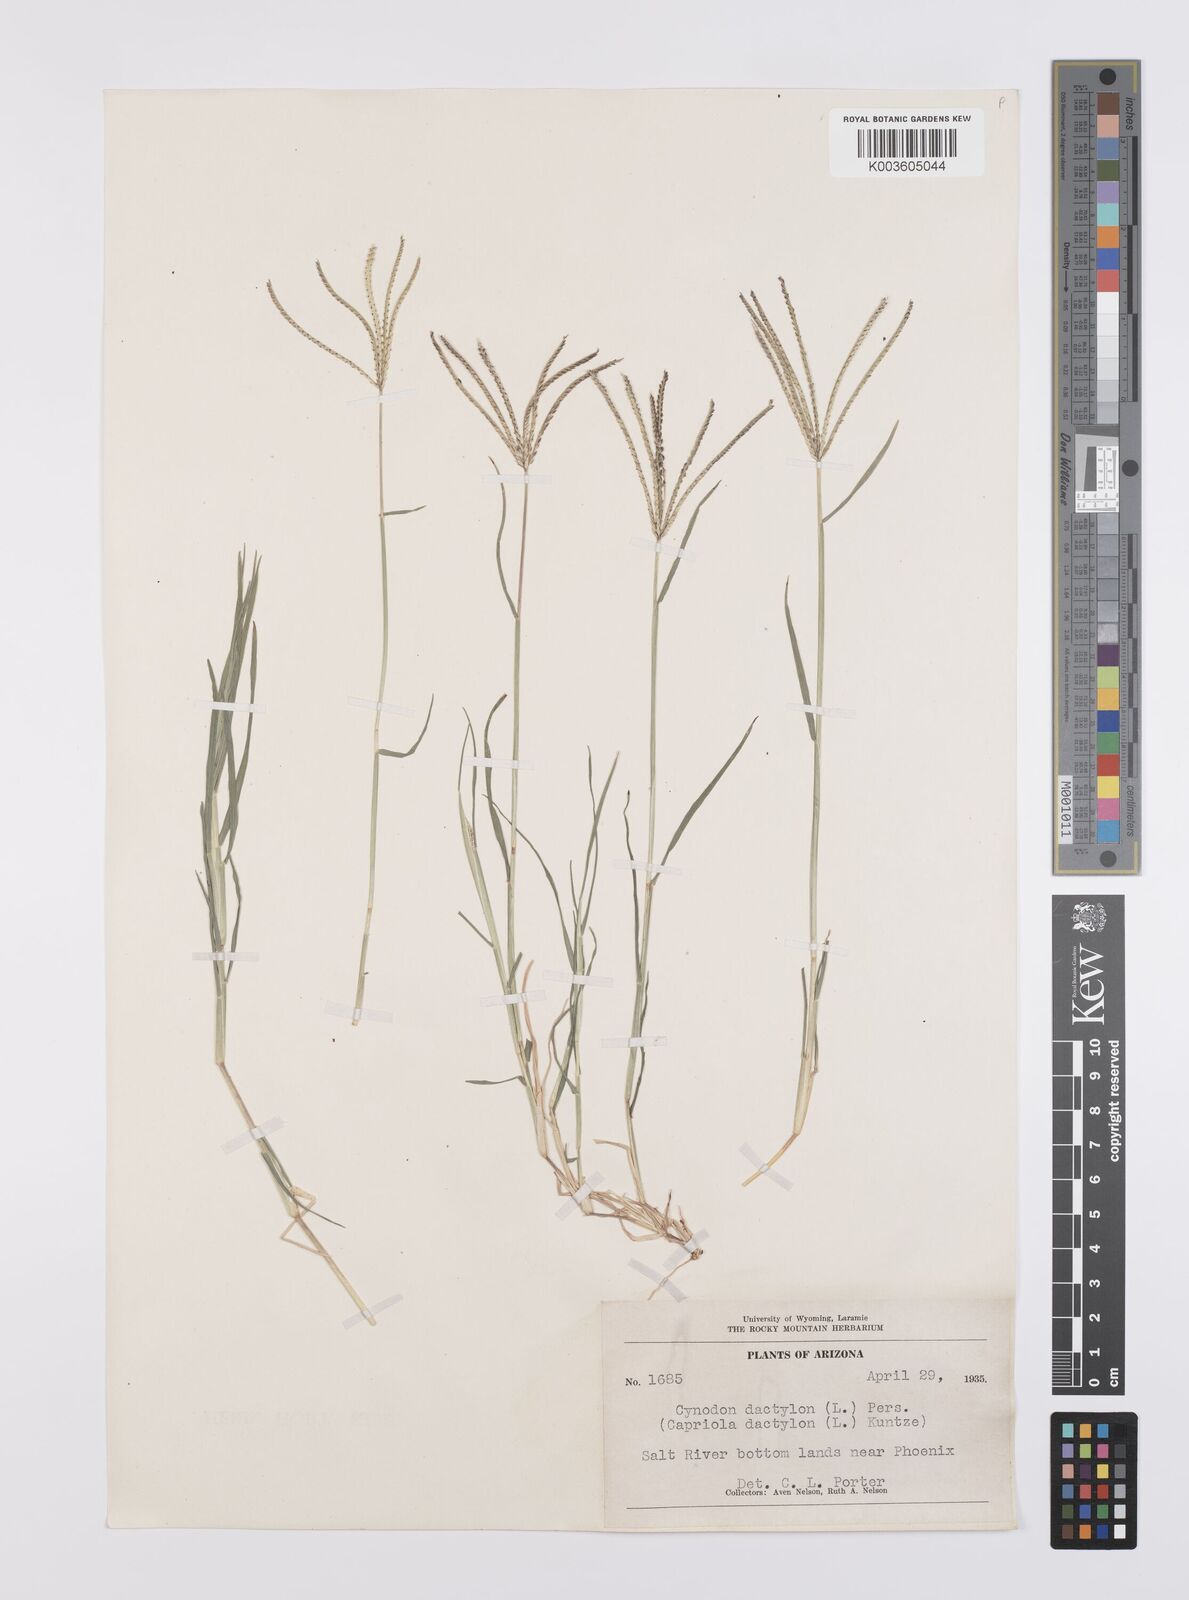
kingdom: Plantae
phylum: Tracheophyta
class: Liliopsida
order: Poales
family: Poaceae
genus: Cynodon
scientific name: Cynodon dactylon
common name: Bermuda grass
